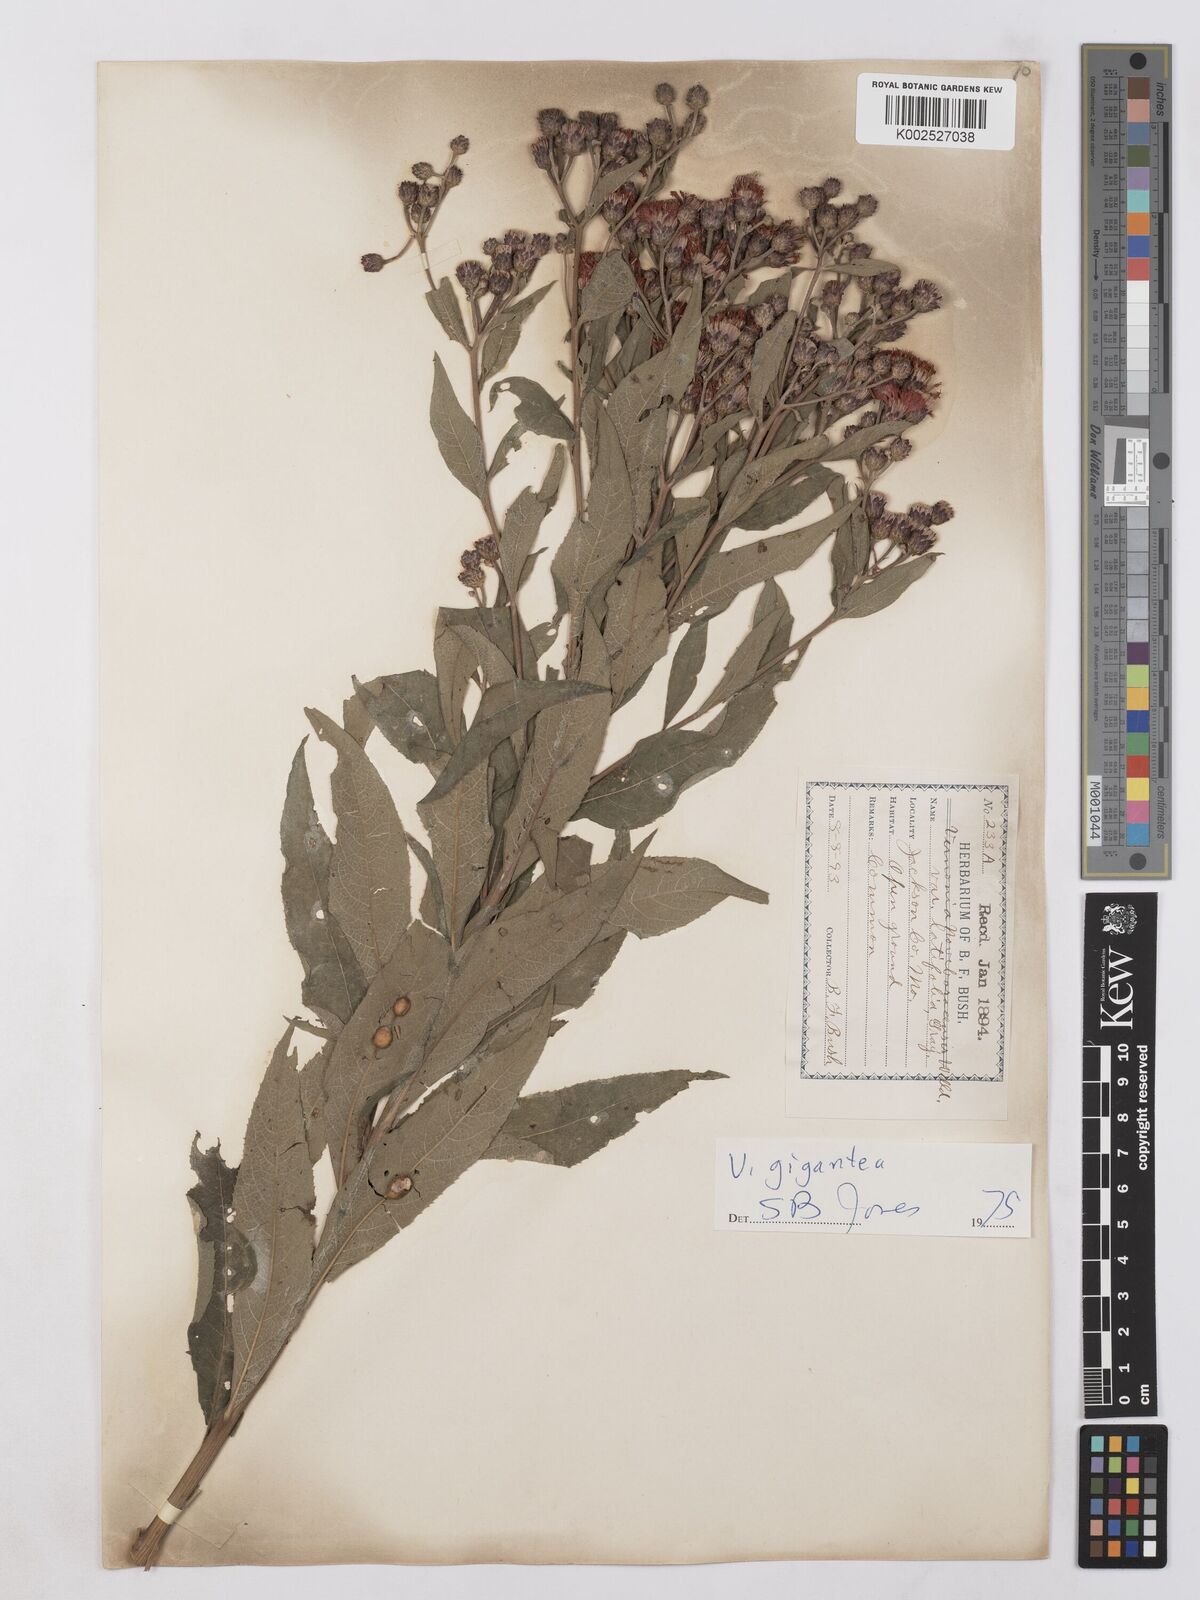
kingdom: Plantae
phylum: Tracheophyta
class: Magnoliopsida
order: Asterales
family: Asteraceae
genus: Vernonia
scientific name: Vernonia noveboracensis
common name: New york ironweed
